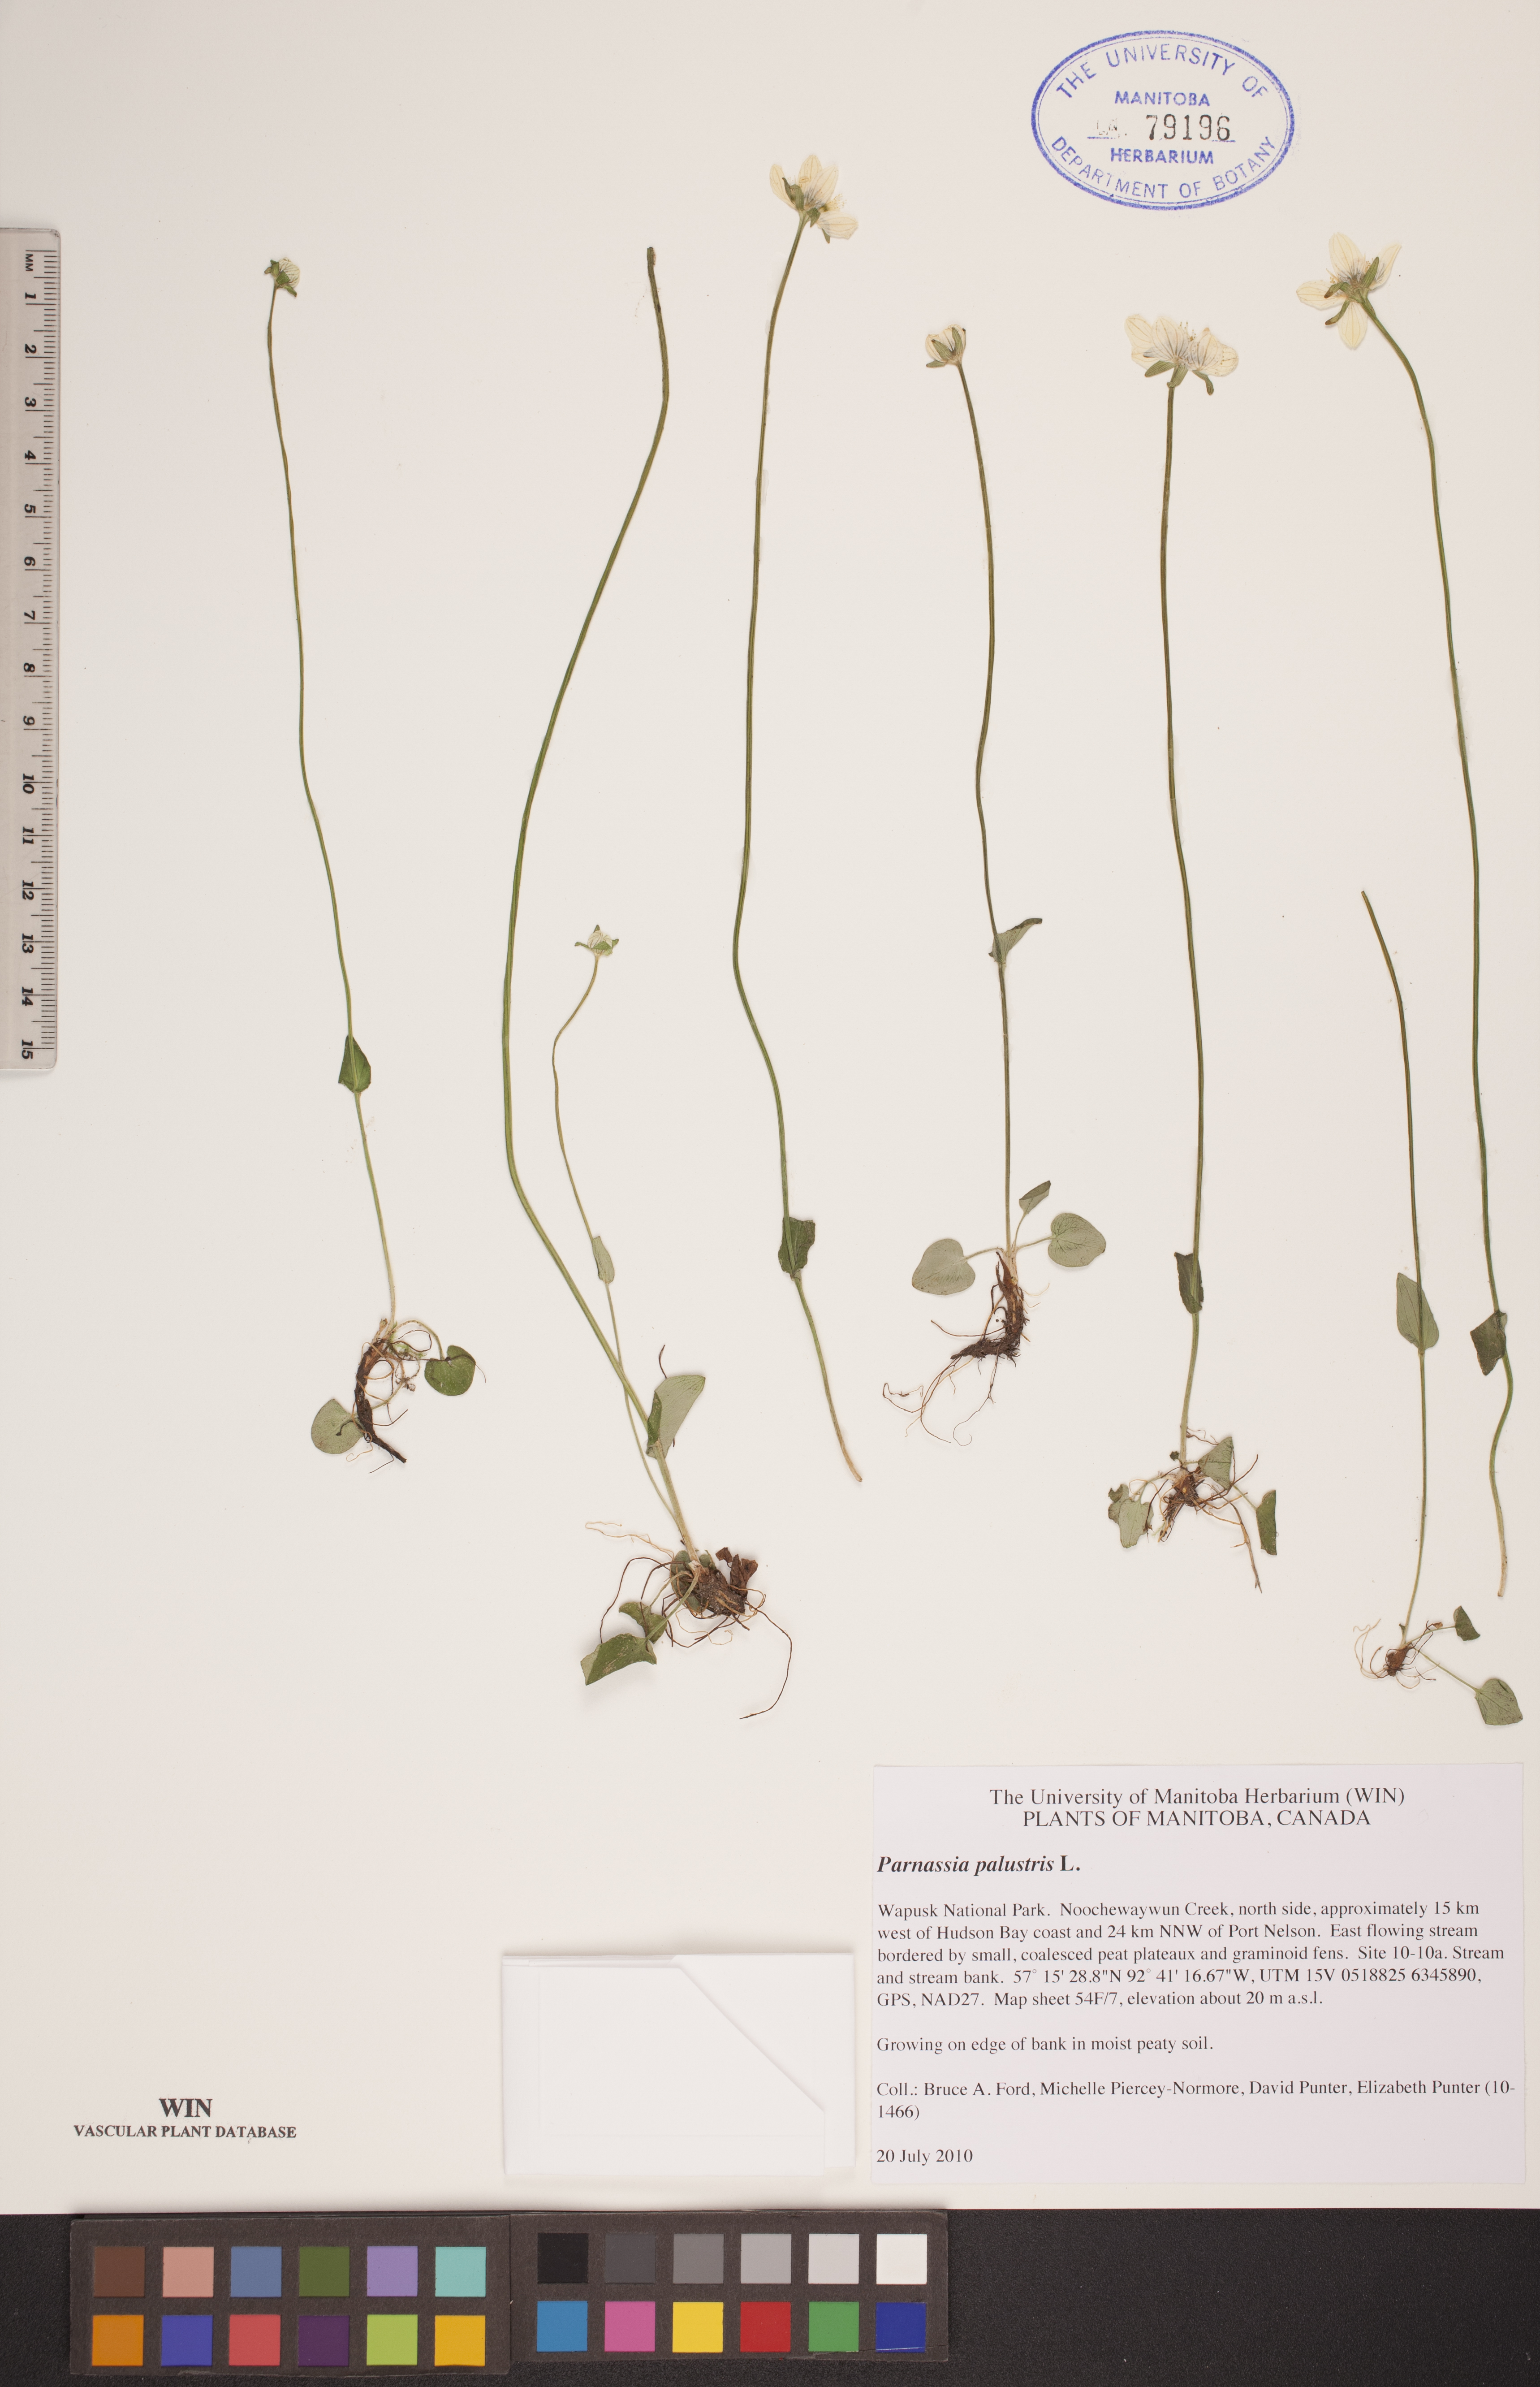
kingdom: Plantae
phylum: Tracheophyta
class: Magnoliopsida
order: Celastrales
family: Parnassiaceae
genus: Parnassia
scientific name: Parnassia palustris
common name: Grass-of-parnassus
